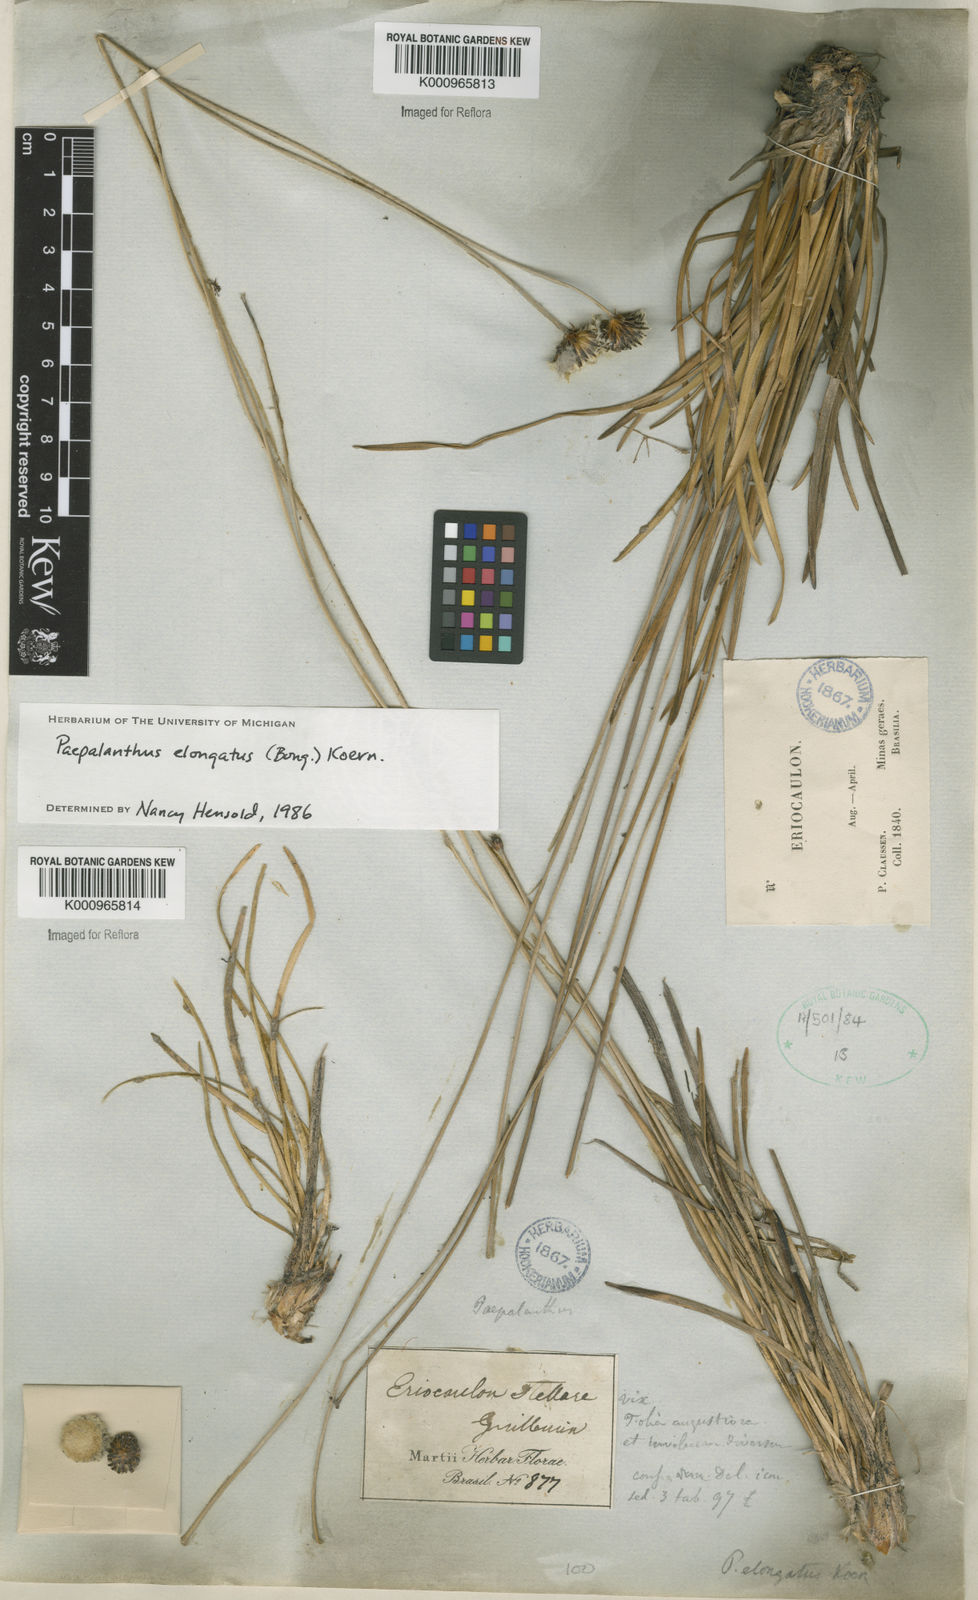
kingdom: Plantae
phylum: Tracheophyta
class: Liliopsida
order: Poales
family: Eriocaulaceae
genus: Paepalanthus
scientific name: Paepalanthus
